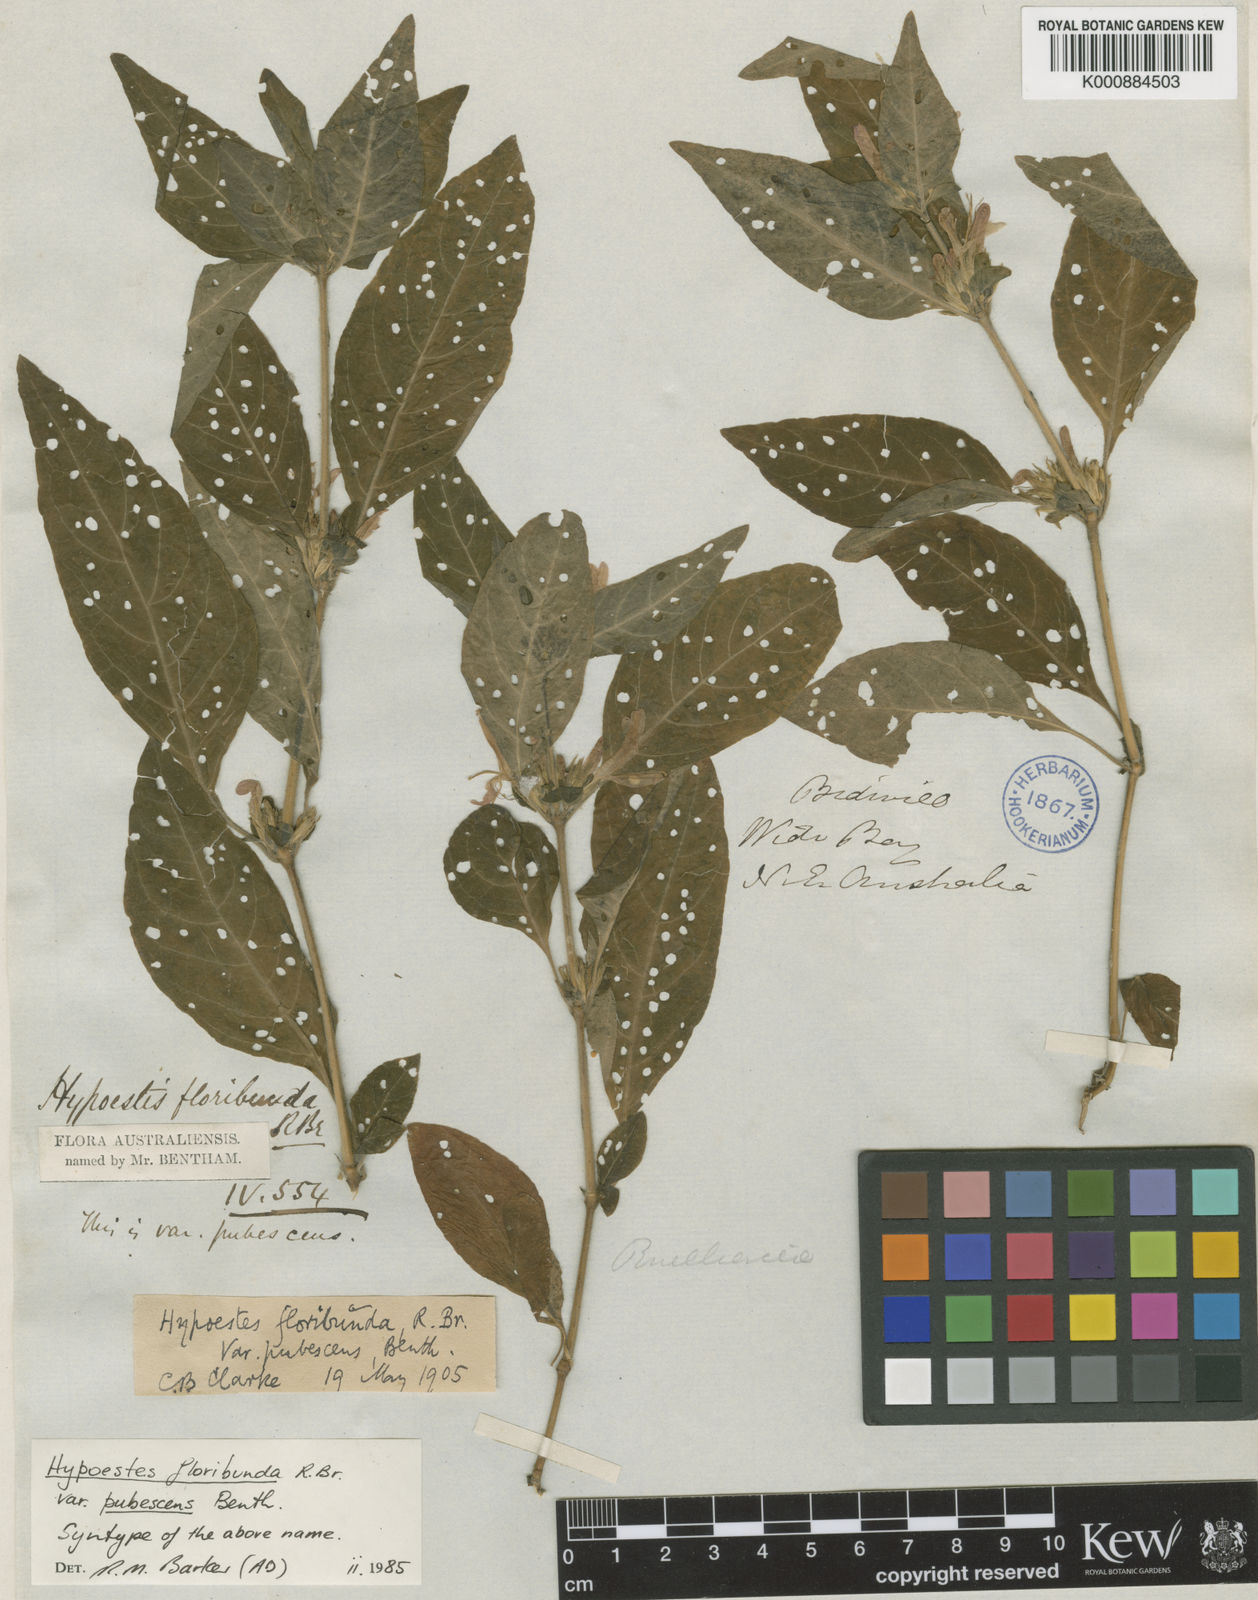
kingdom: Plantae
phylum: Tracheophyta
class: Magnoliopsida
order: Lamiales
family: Acanthaceae
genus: Hypoestes
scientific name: Hypoestes floribunda
